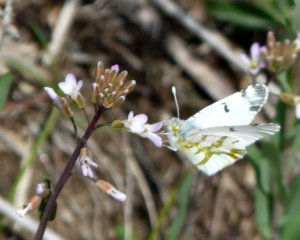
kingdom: Animalia
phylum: Arthropoda
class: Insecta
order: Lepidoptera
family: Pieridae
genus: Euchloe
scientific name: Euchloe olympia
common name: Olympia Marble
